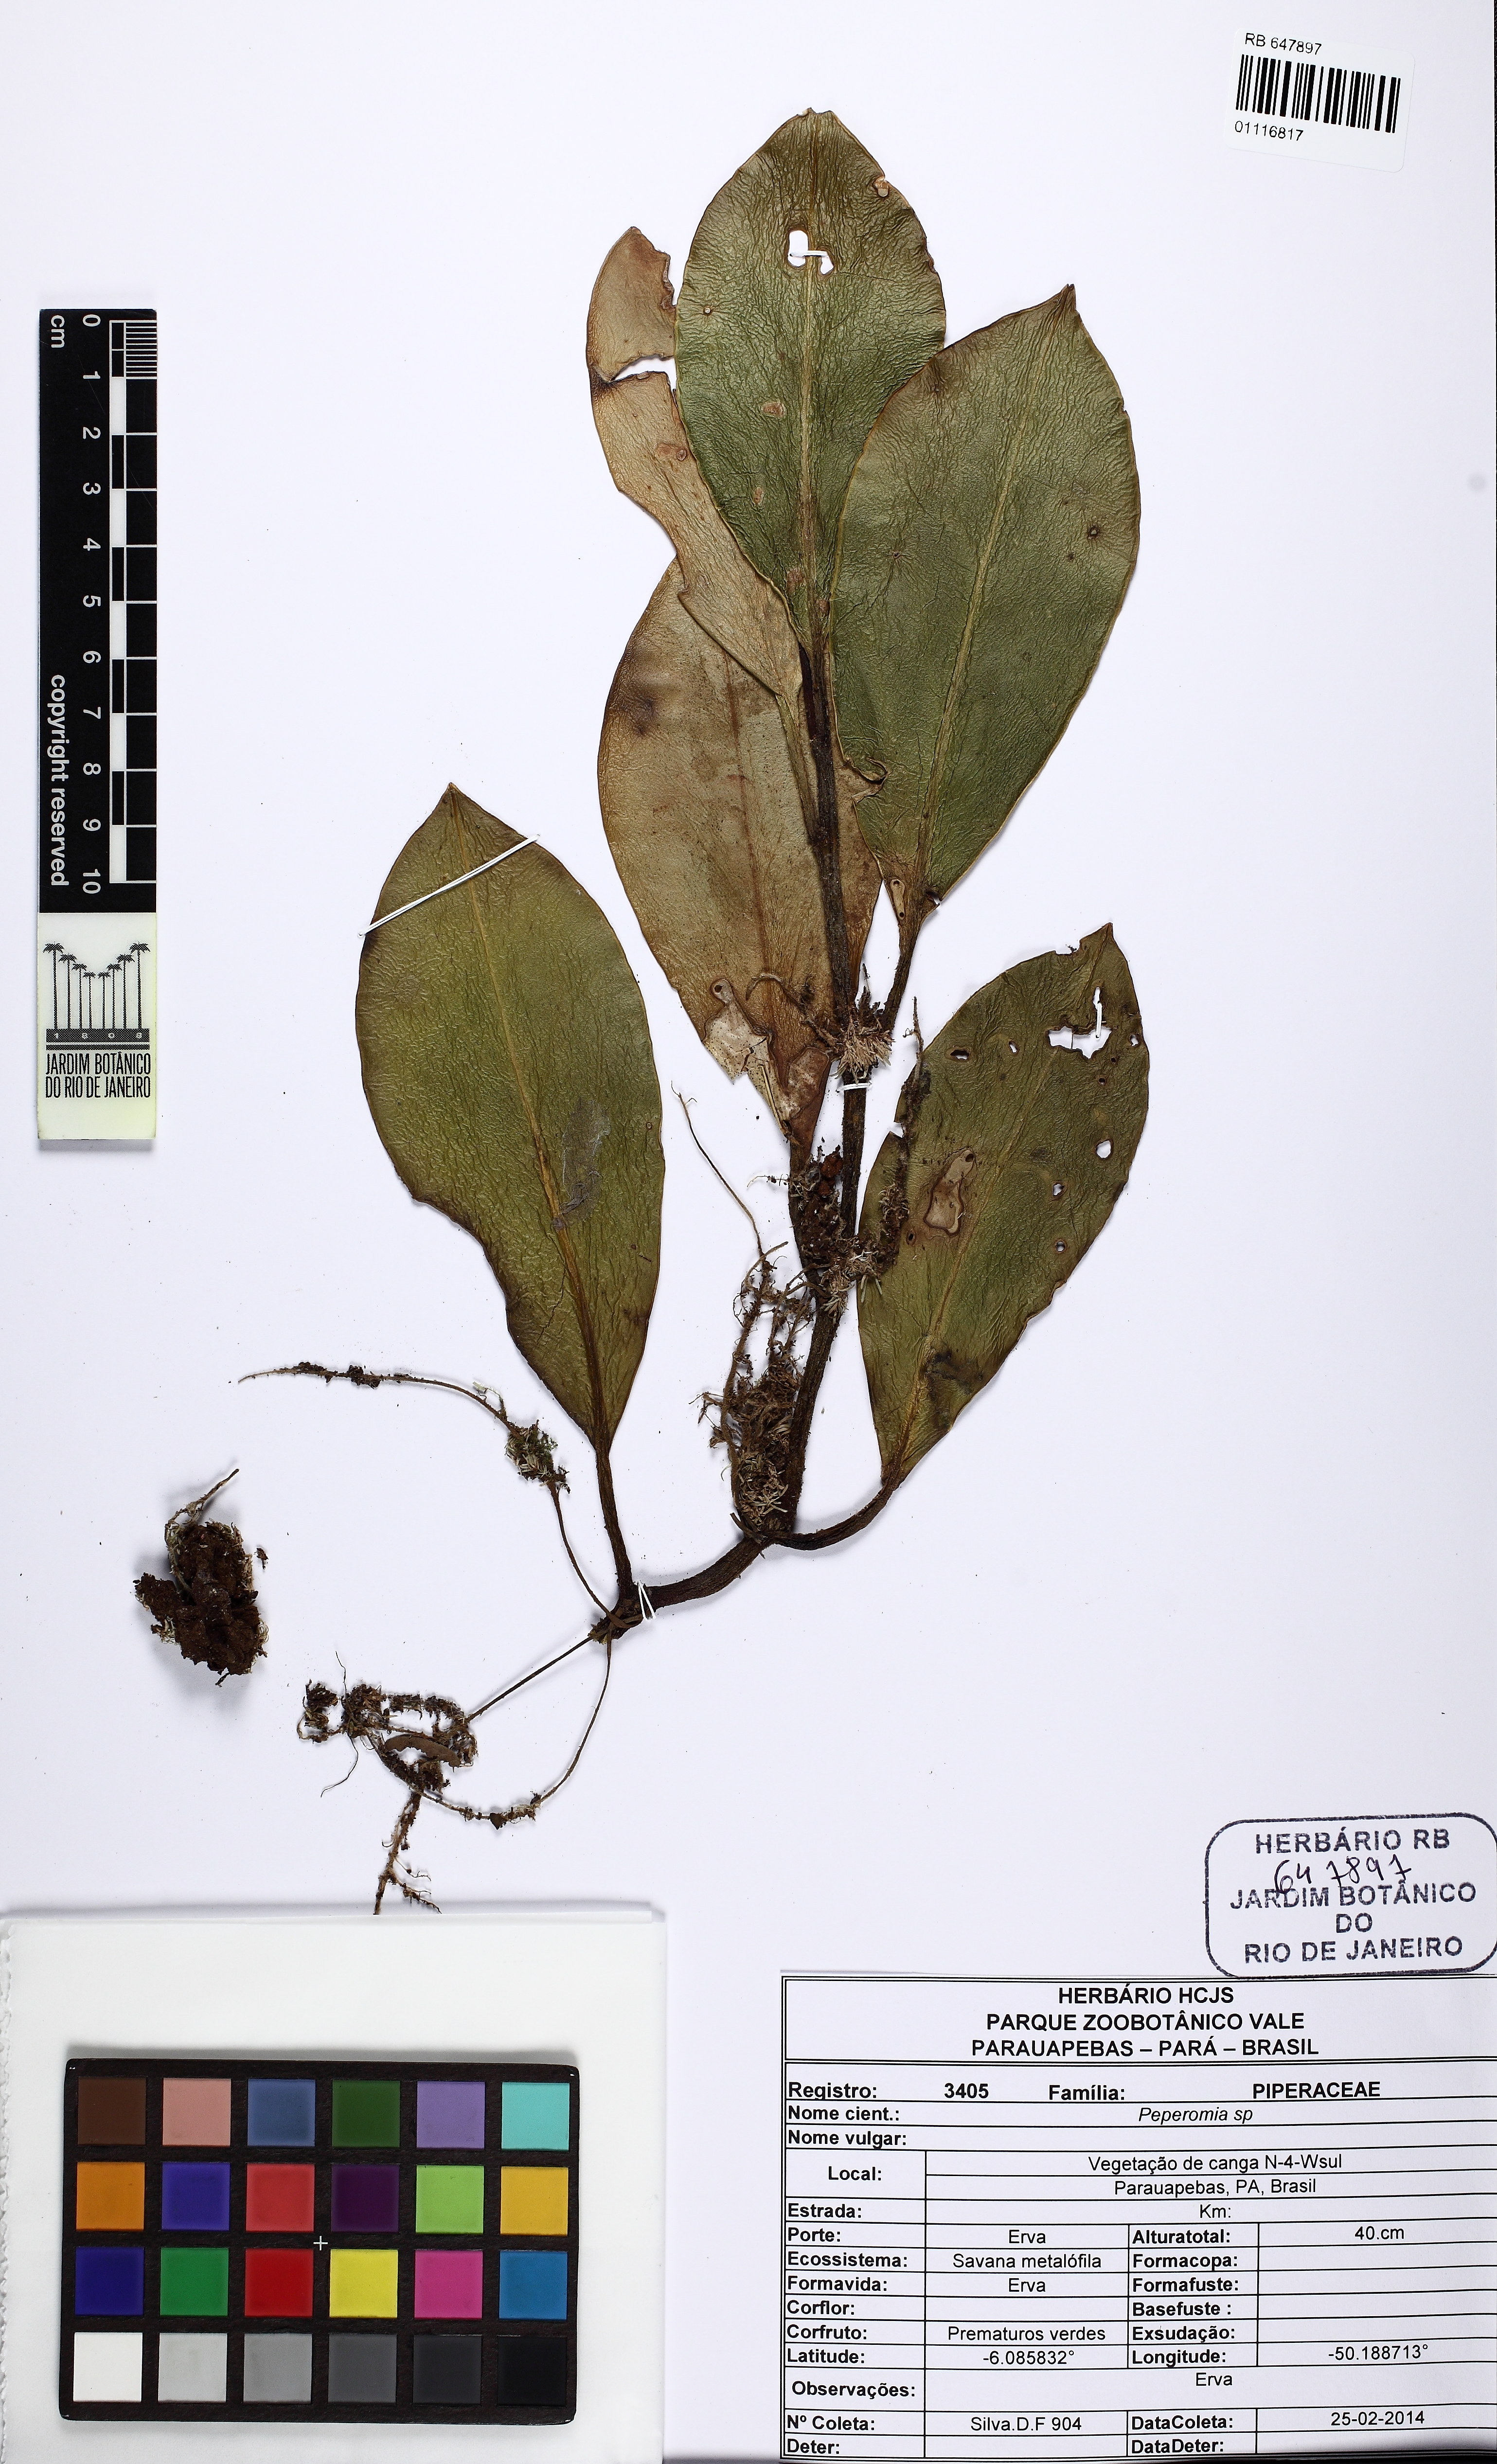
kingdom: Plantae
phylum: Tracheophyta
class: Magnoliopsida
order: Piperales
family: Piperaceae
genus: Peperomia
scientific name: Peperomia uaupesensis
